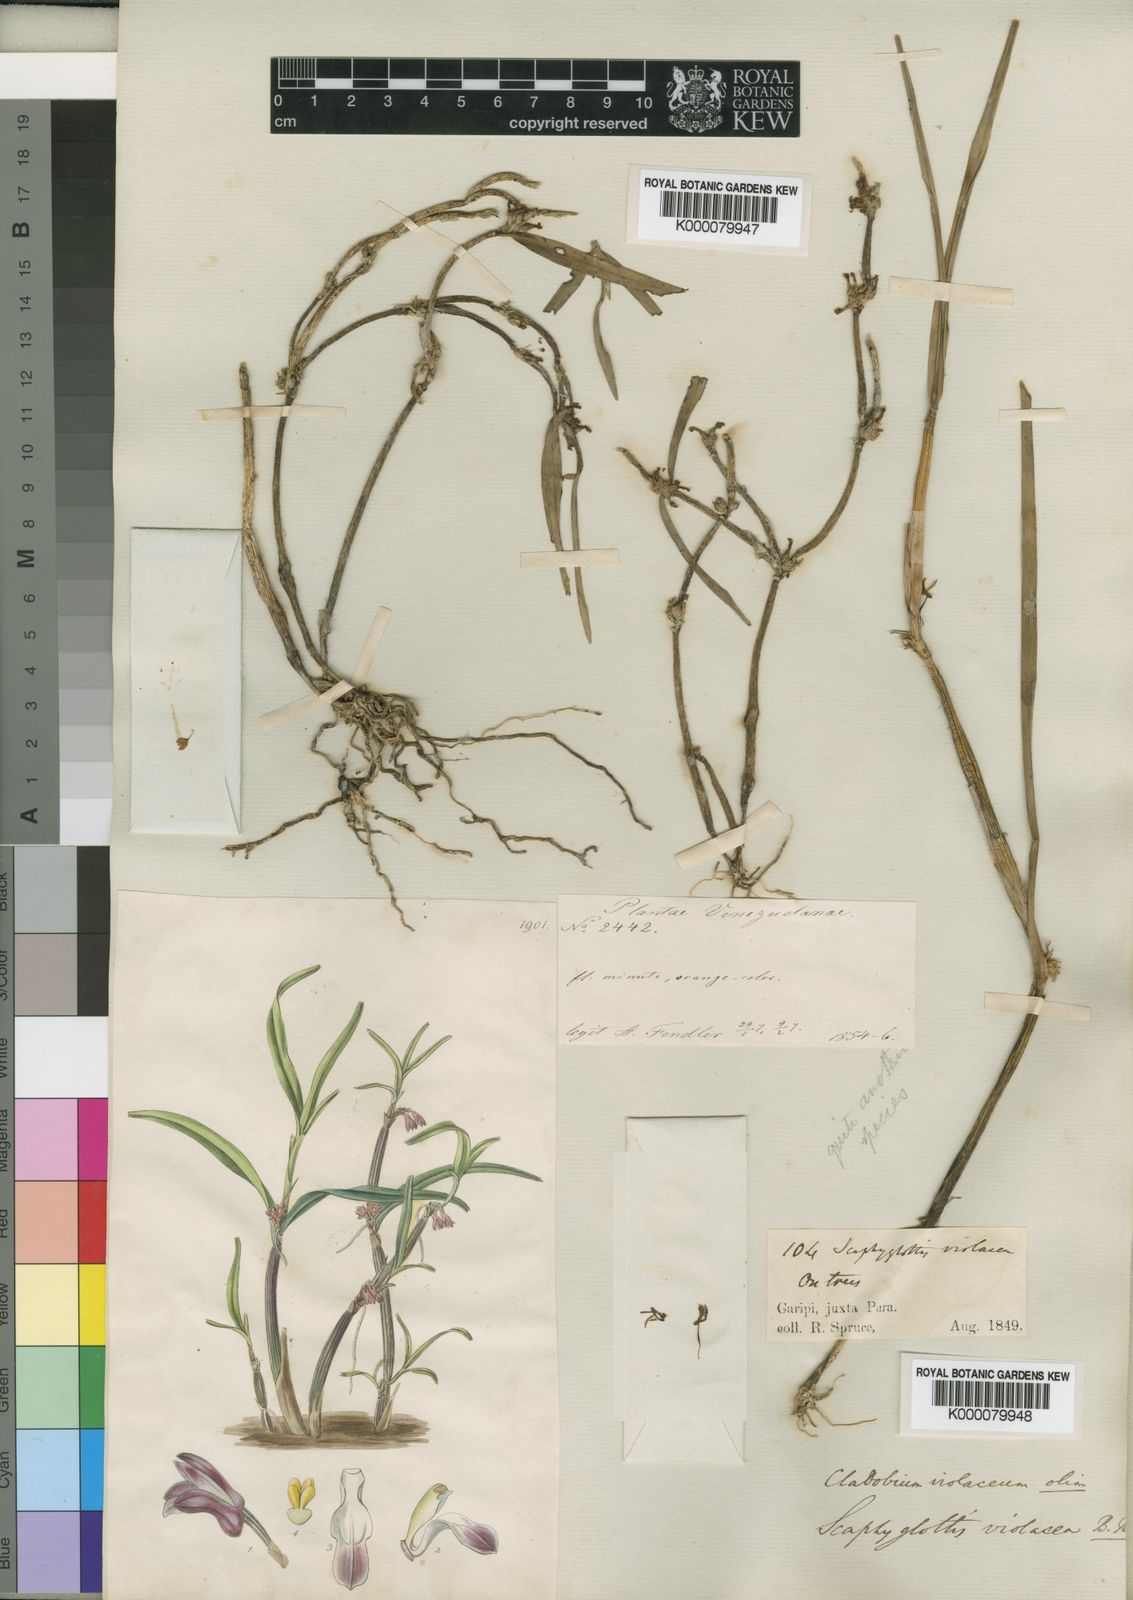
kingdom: Plantae
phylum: Tracheophyta
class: Liliopsida
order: Asparagales
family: Orchidaceae
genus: Scaphyglottis
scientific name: Scaphyglottis graminifolia
